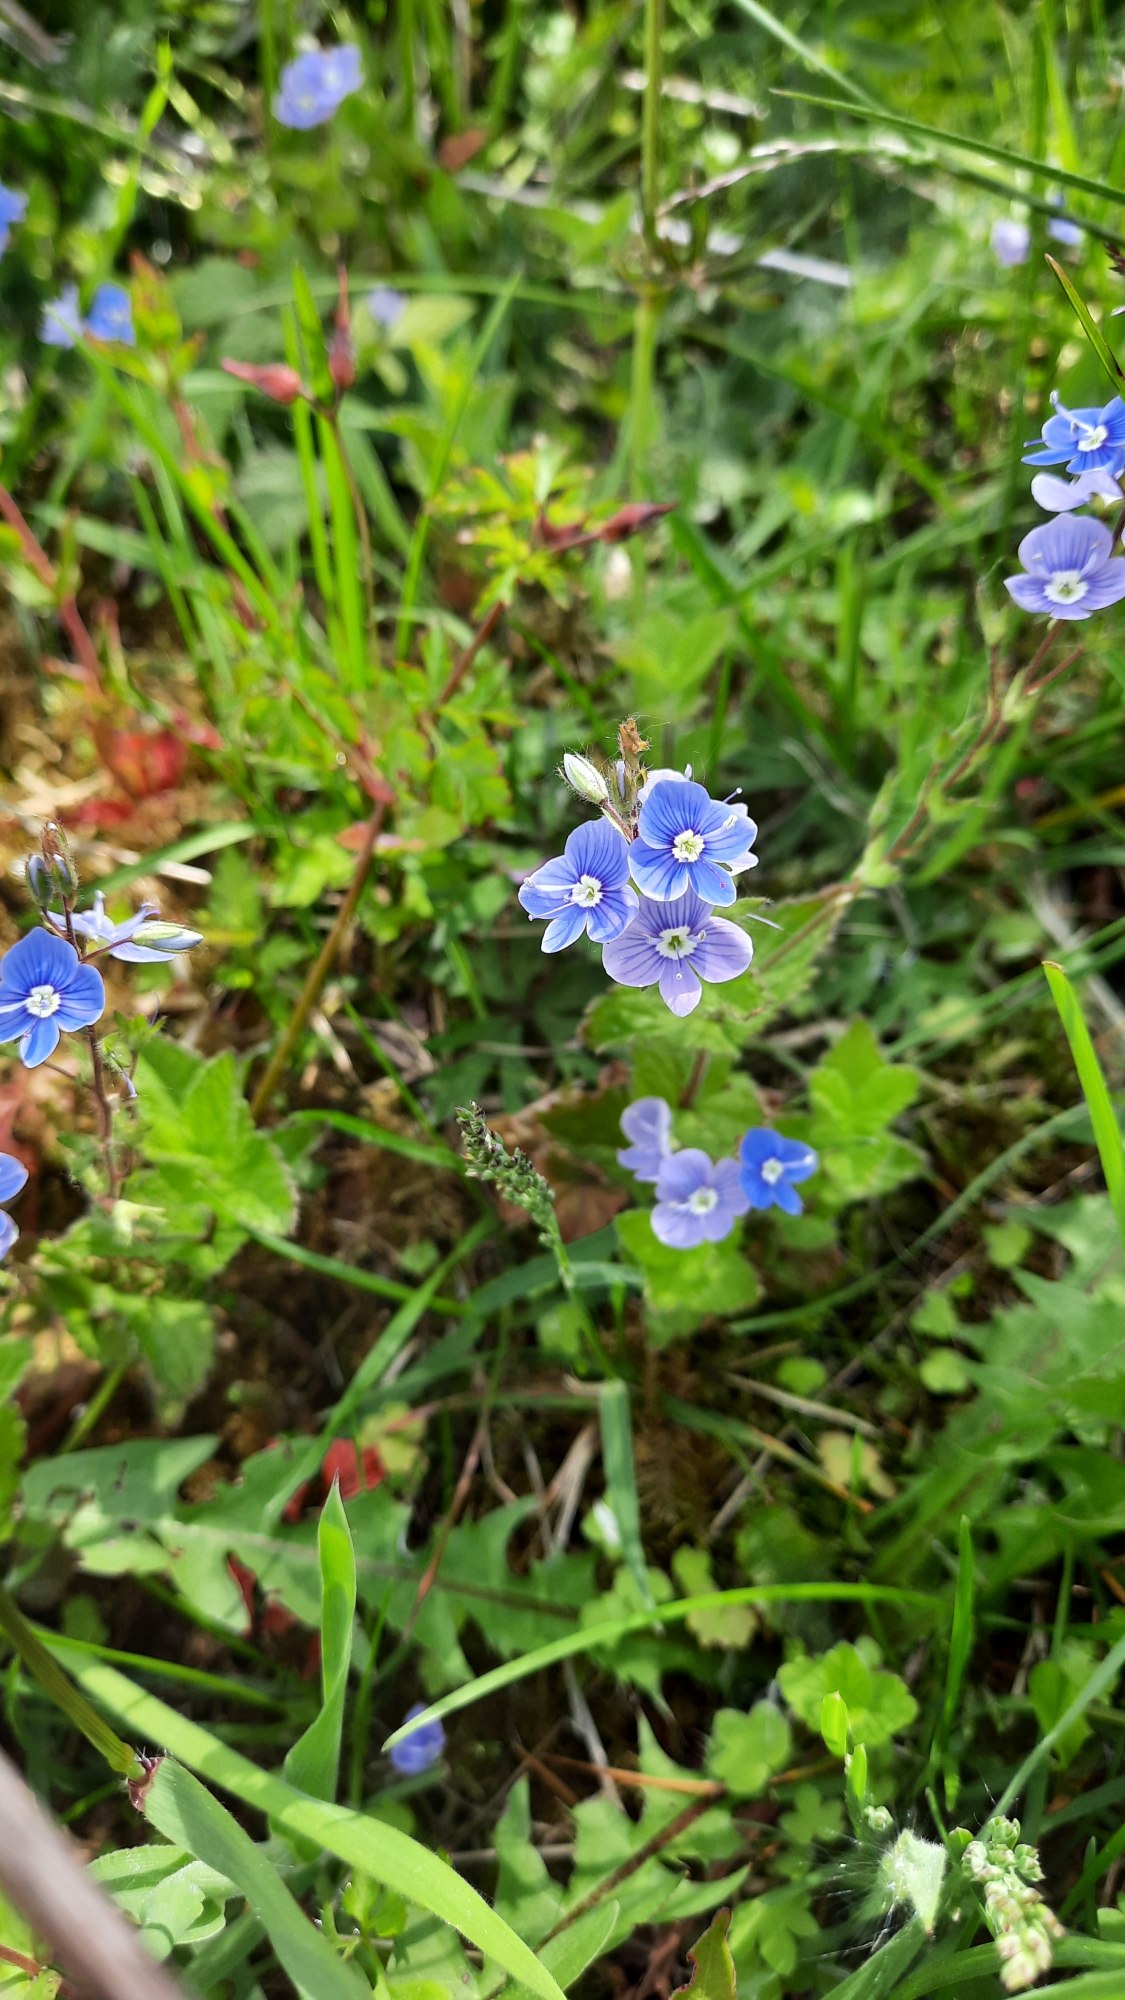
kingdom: Plantae
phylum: Tracheophyta
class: Magnoliopsida
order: Lamiales
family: Plantaginaceae
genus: Veronica
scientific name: Veronica chamaedrys
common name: Tveskægget ærenpris
